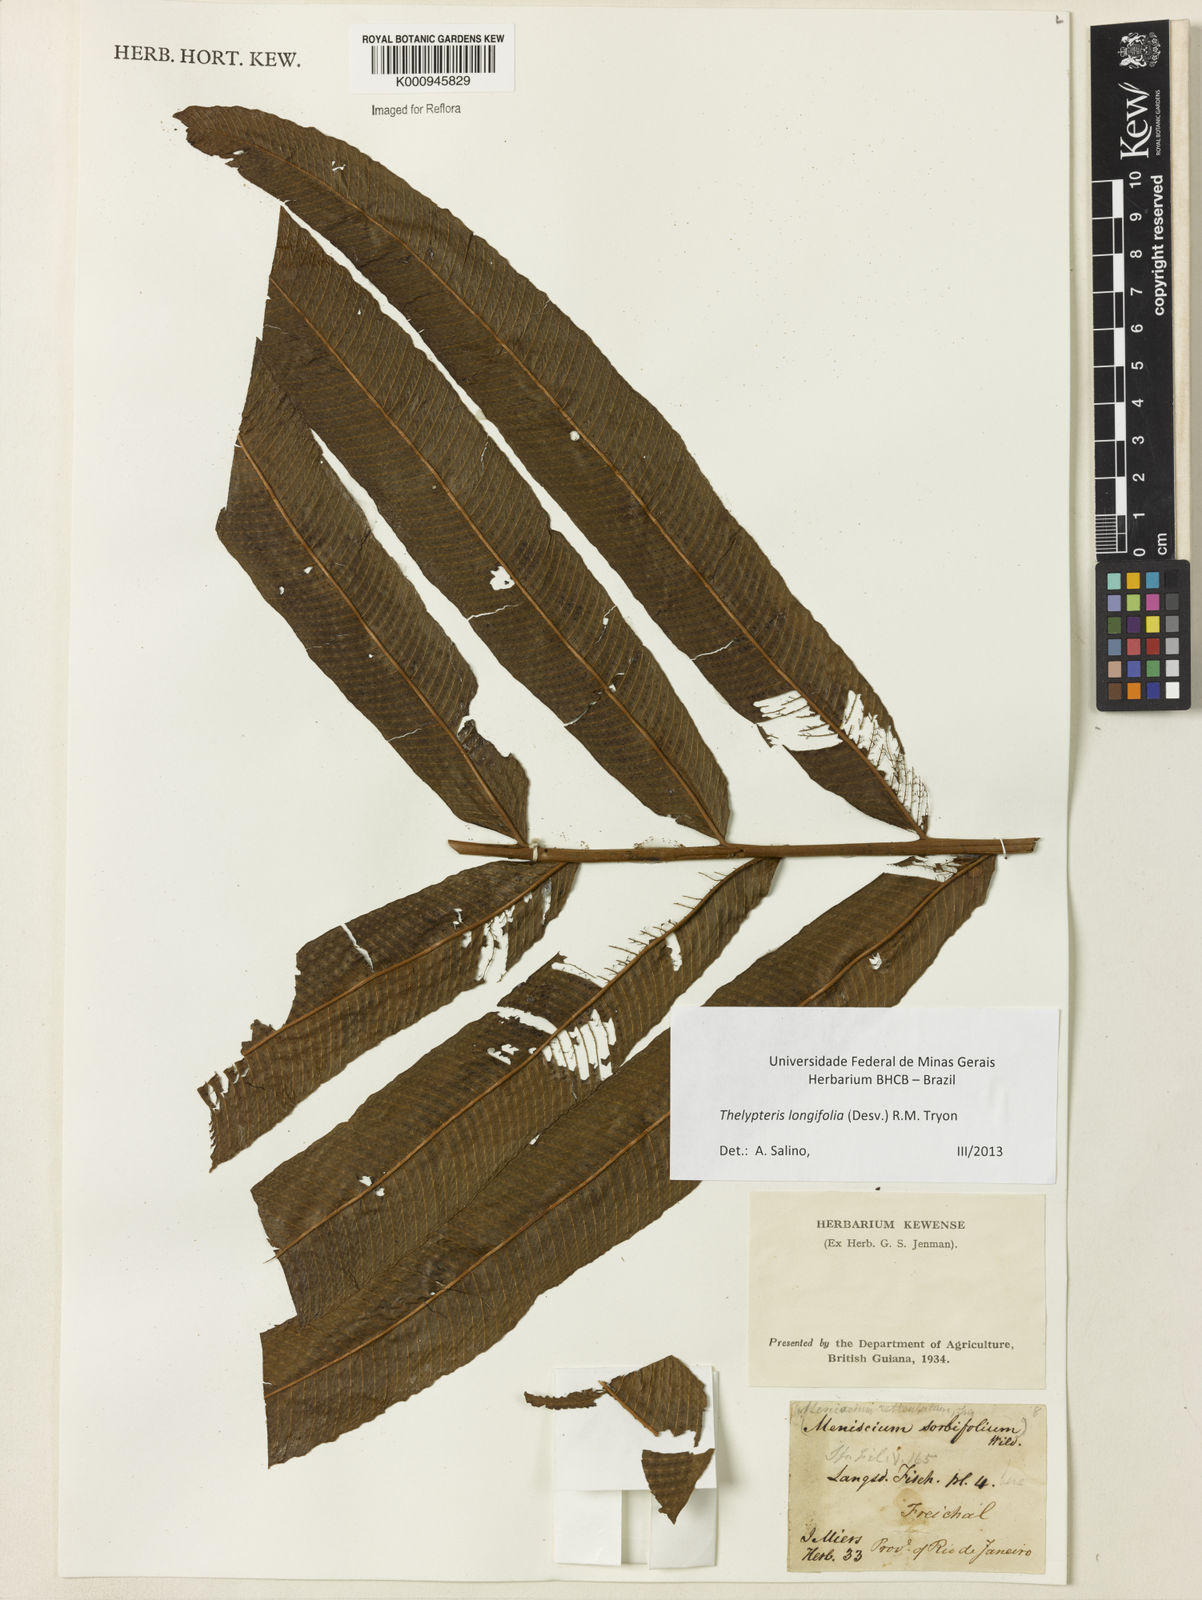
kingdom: Plantae
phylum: Tracheophyta
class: Polypodiopsida
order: Polypodiales
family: Thelypteridaceae
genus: Meniscium
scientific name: Meniscium longifolium
